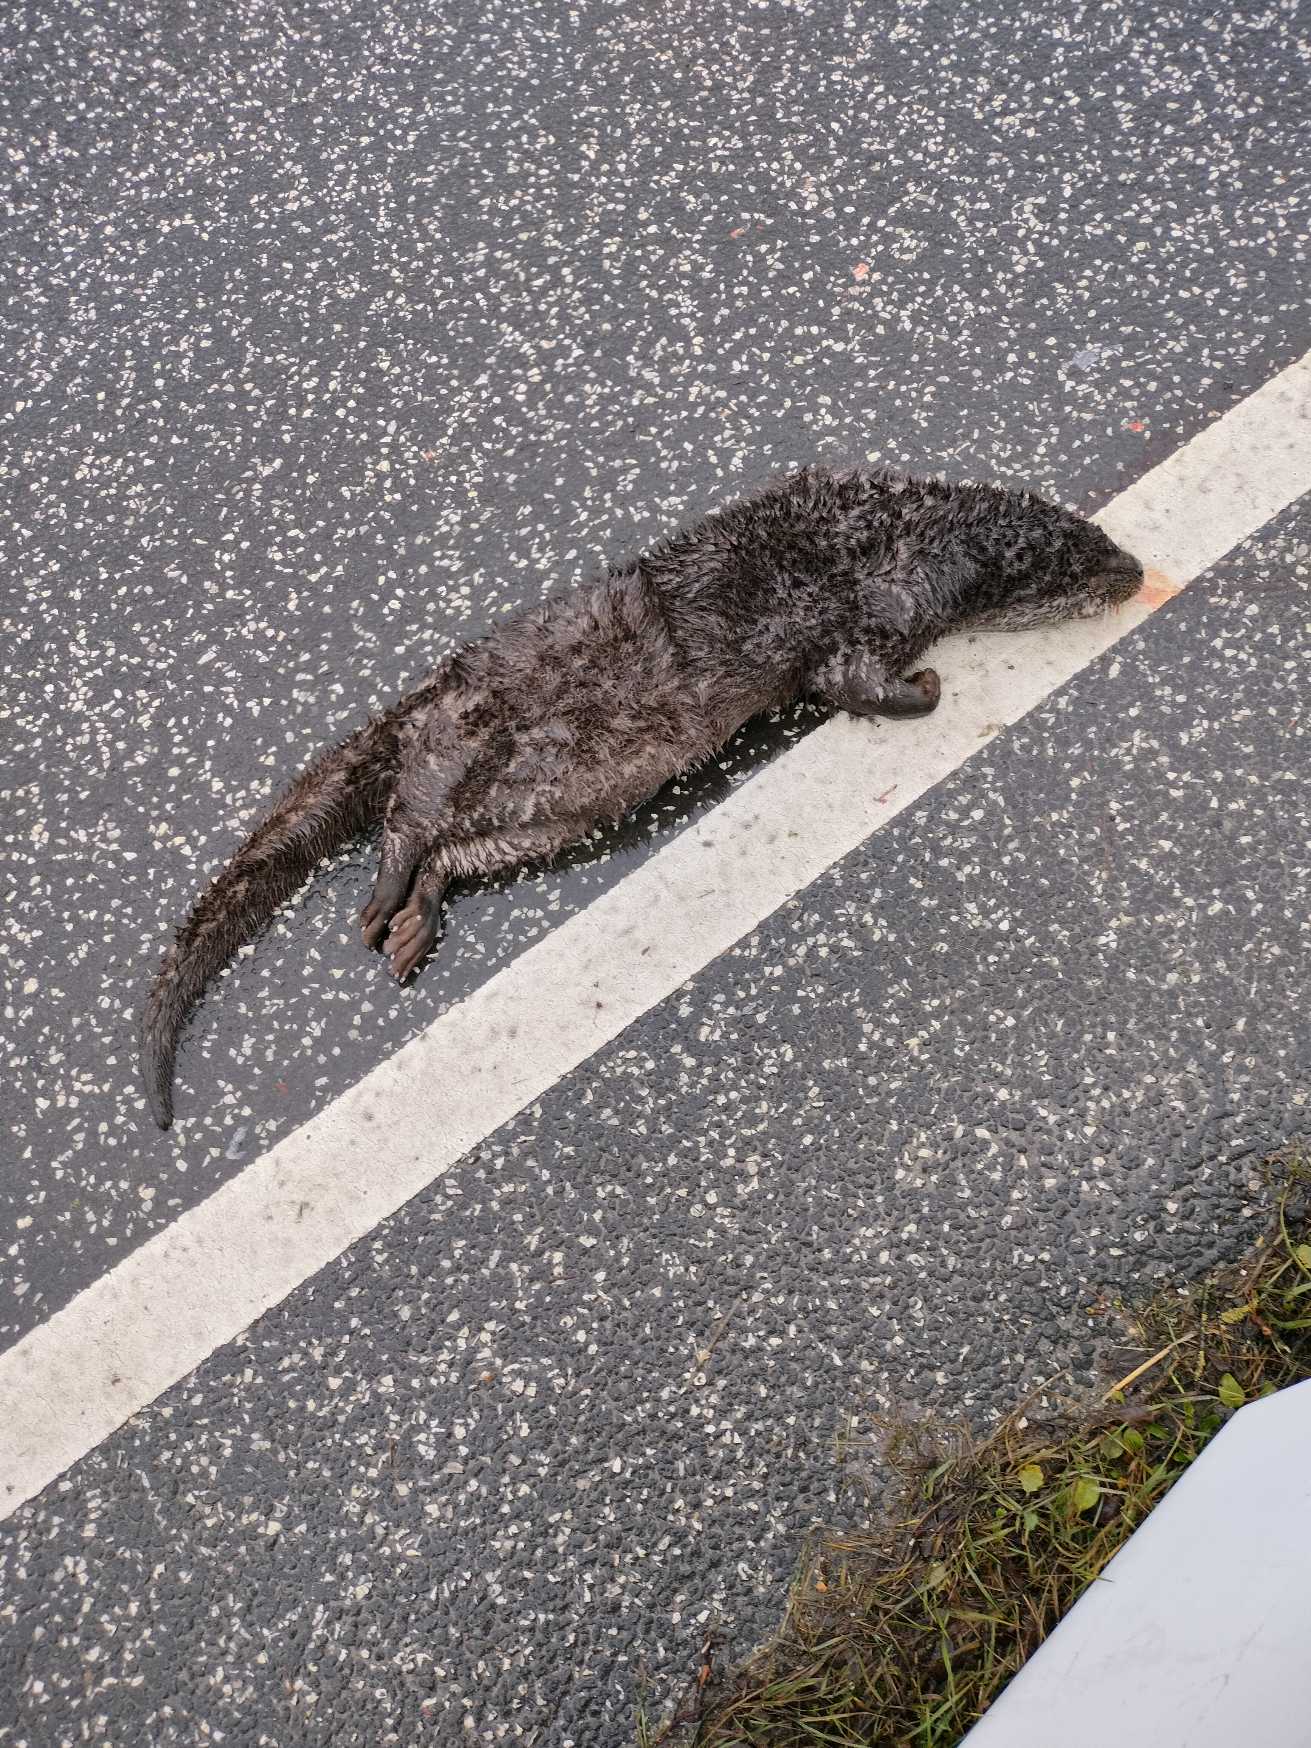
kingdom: Animalia
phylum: Chordata
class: Mammalia
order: Carnivora
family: Mustelidae
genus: Lutra
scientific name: Lutra lutra
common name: Odder
